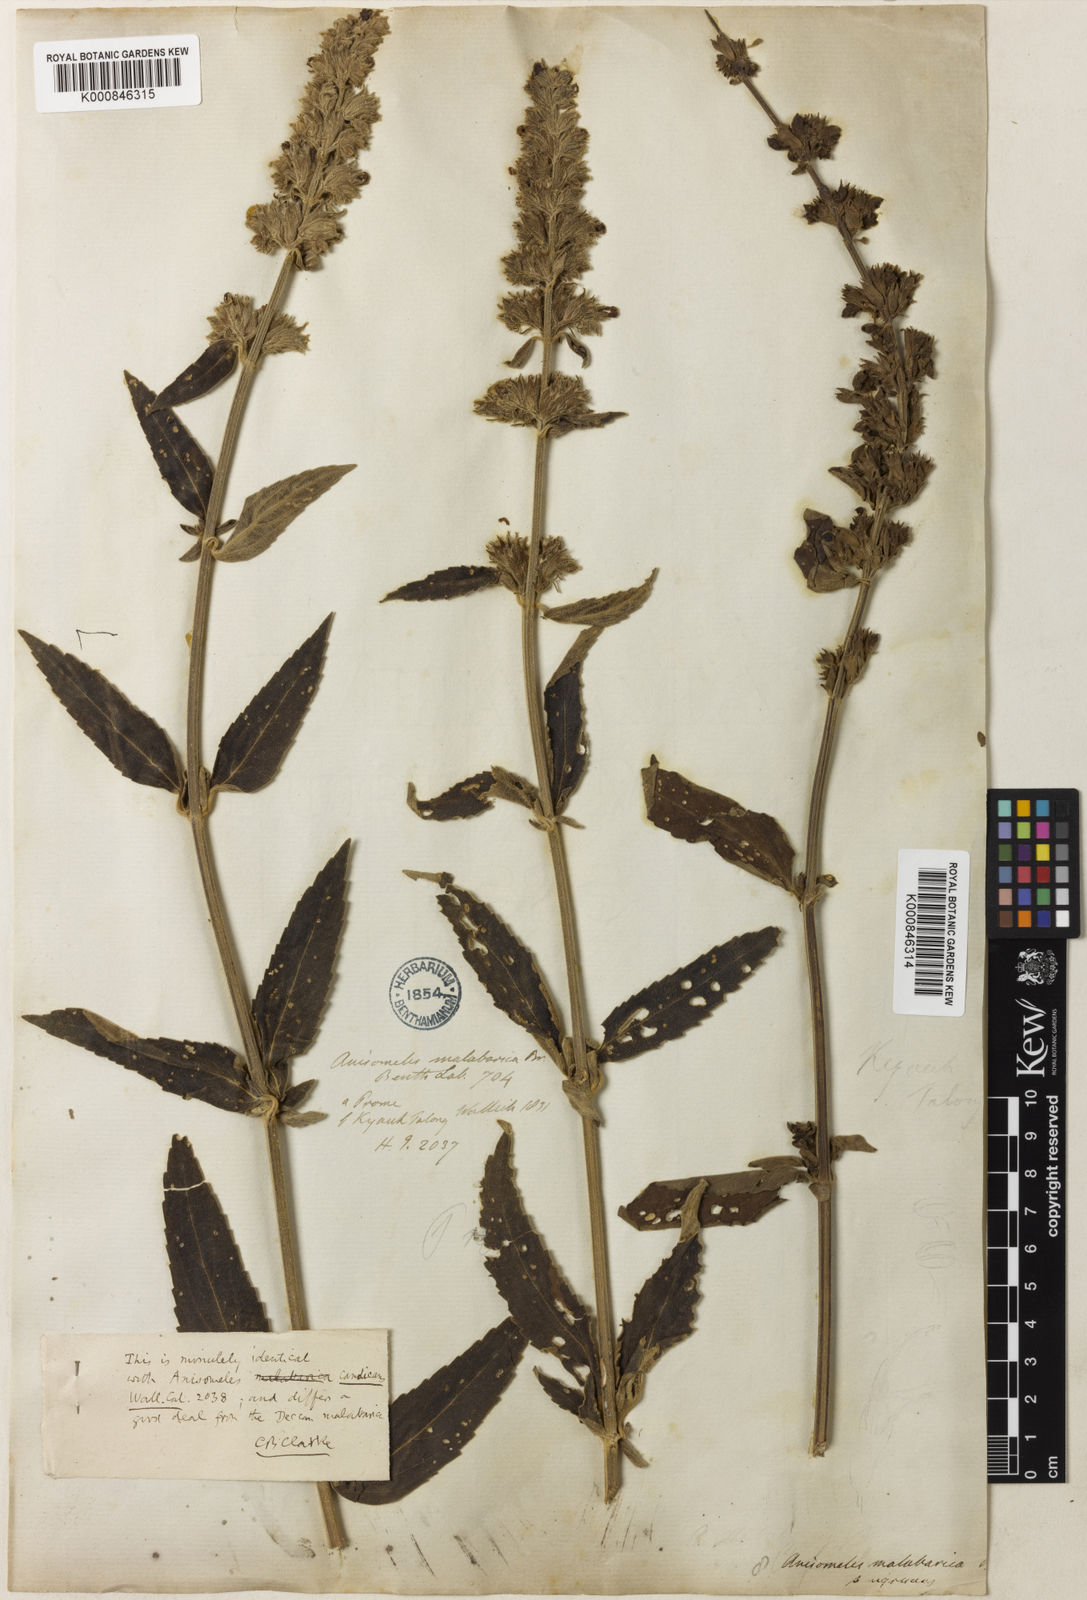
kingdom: Plantae
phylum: Tracheophyta
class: Magnoliopsida
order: Lamiales
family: Lamiaceae
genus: Anisomeles
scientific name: Anisomeles indica
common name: Catmint
